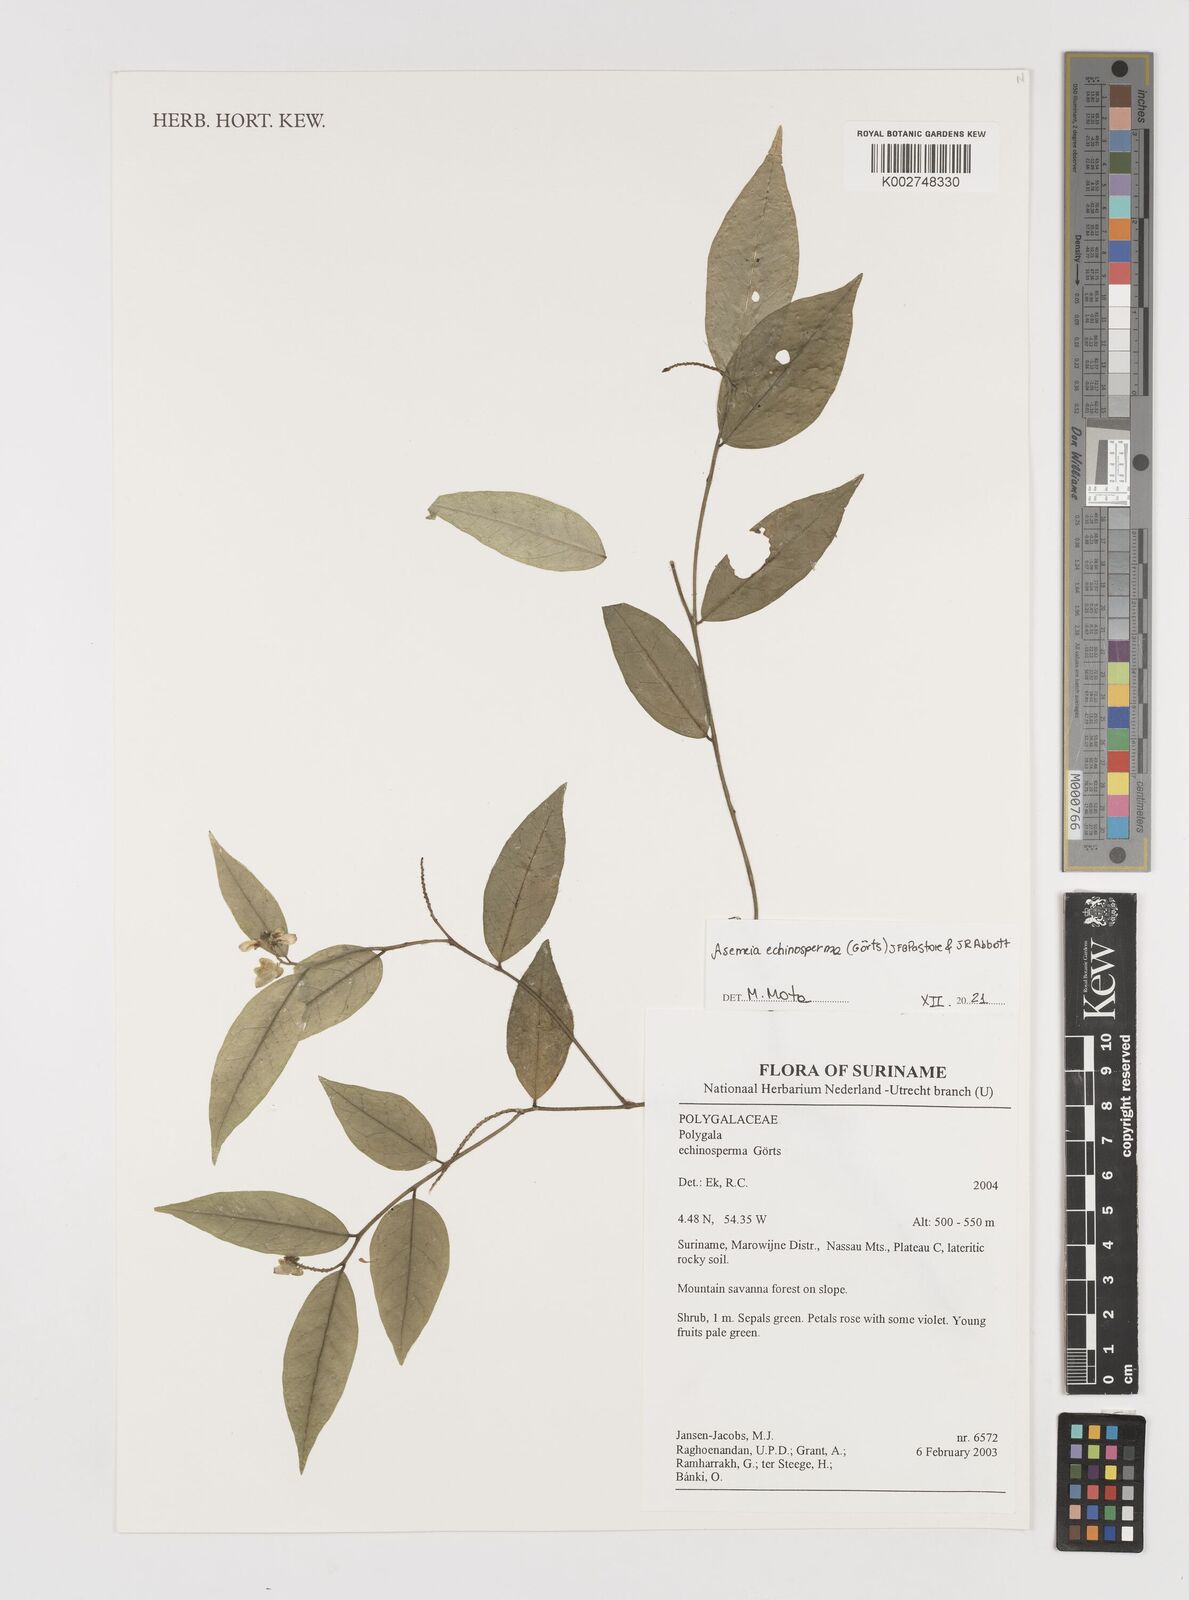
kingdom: Plantae
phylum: Tracheophyta
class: Magnoliopsida
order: Fabales
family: Polygalaceae
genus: Asemeia
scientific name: Asemeia echinosperma
